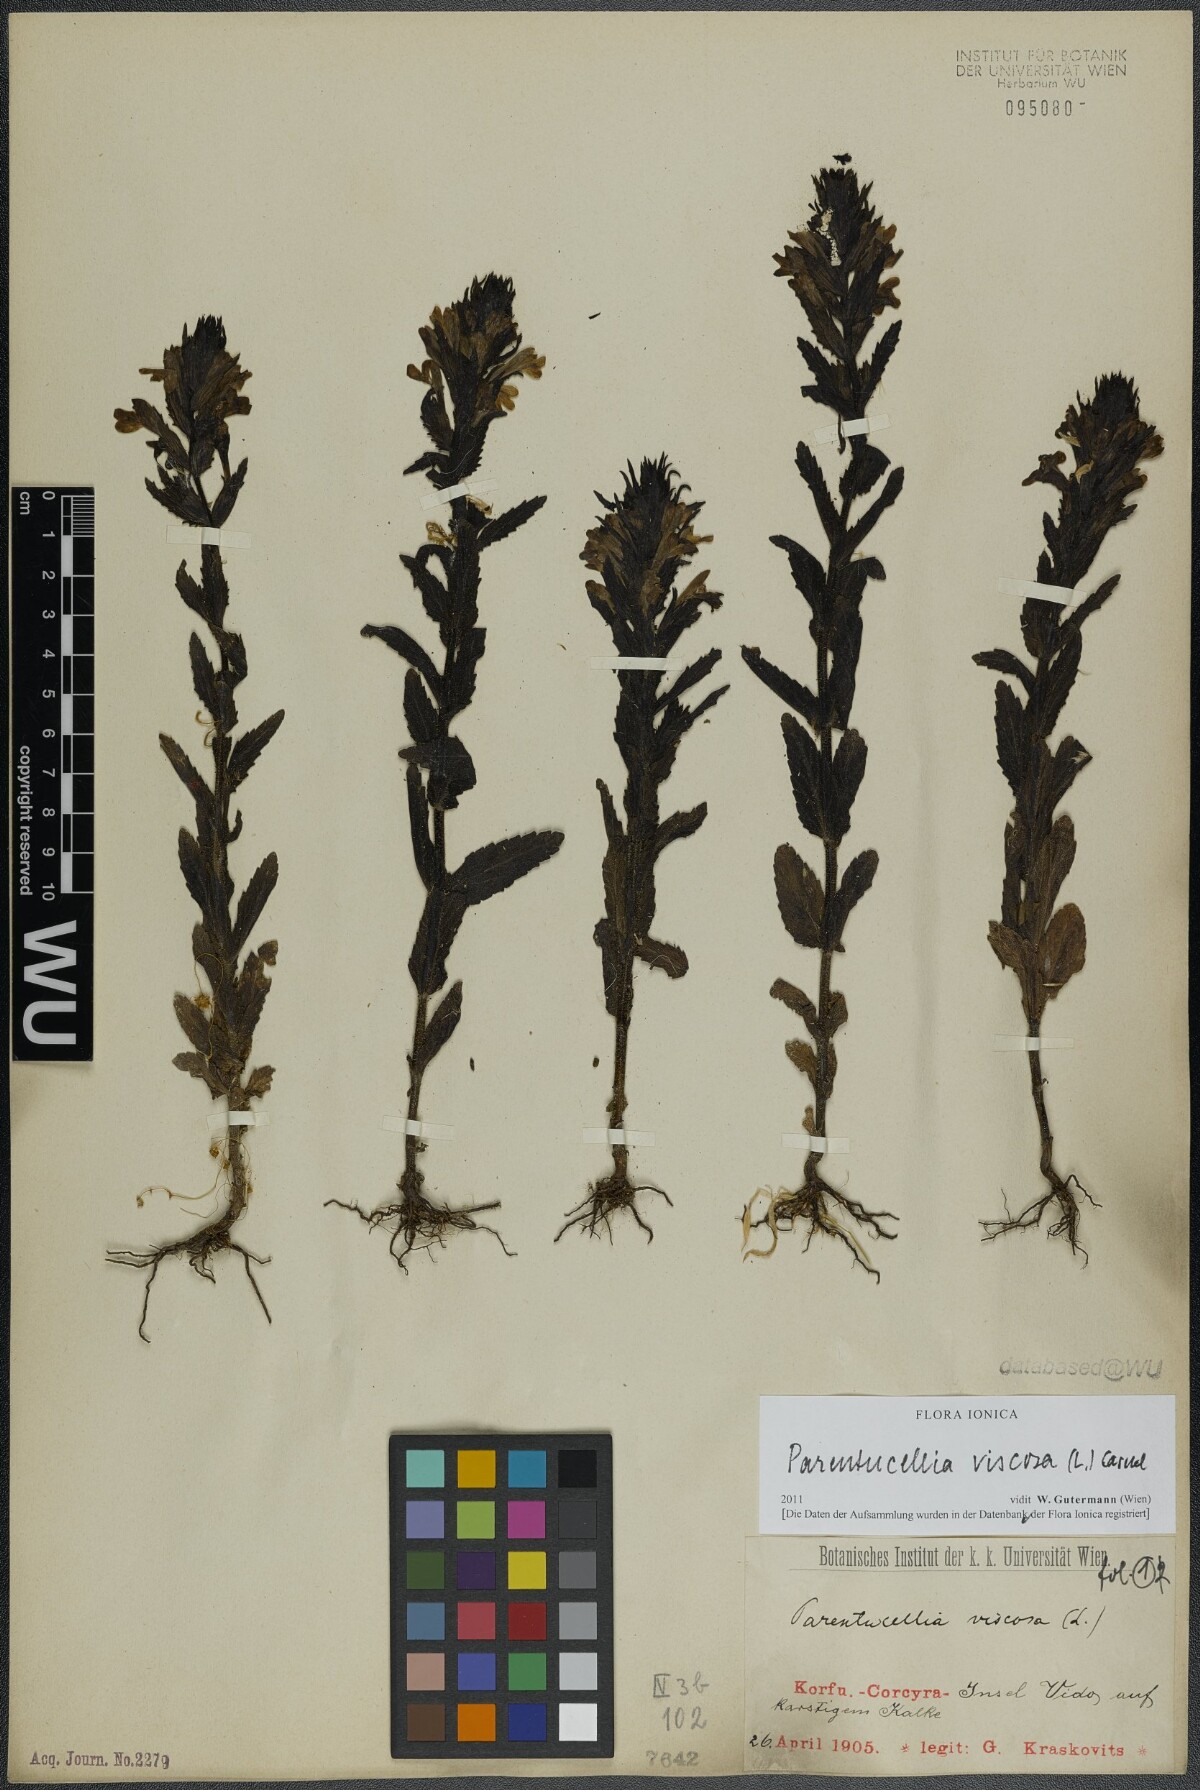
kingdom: Plantae
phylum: Tracheophyta
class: Magnoliopsida
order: Lamiales
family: Orobanchaceae
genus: Bellardia
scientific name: Bellardia viscosa
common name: Sticky parentucellia
